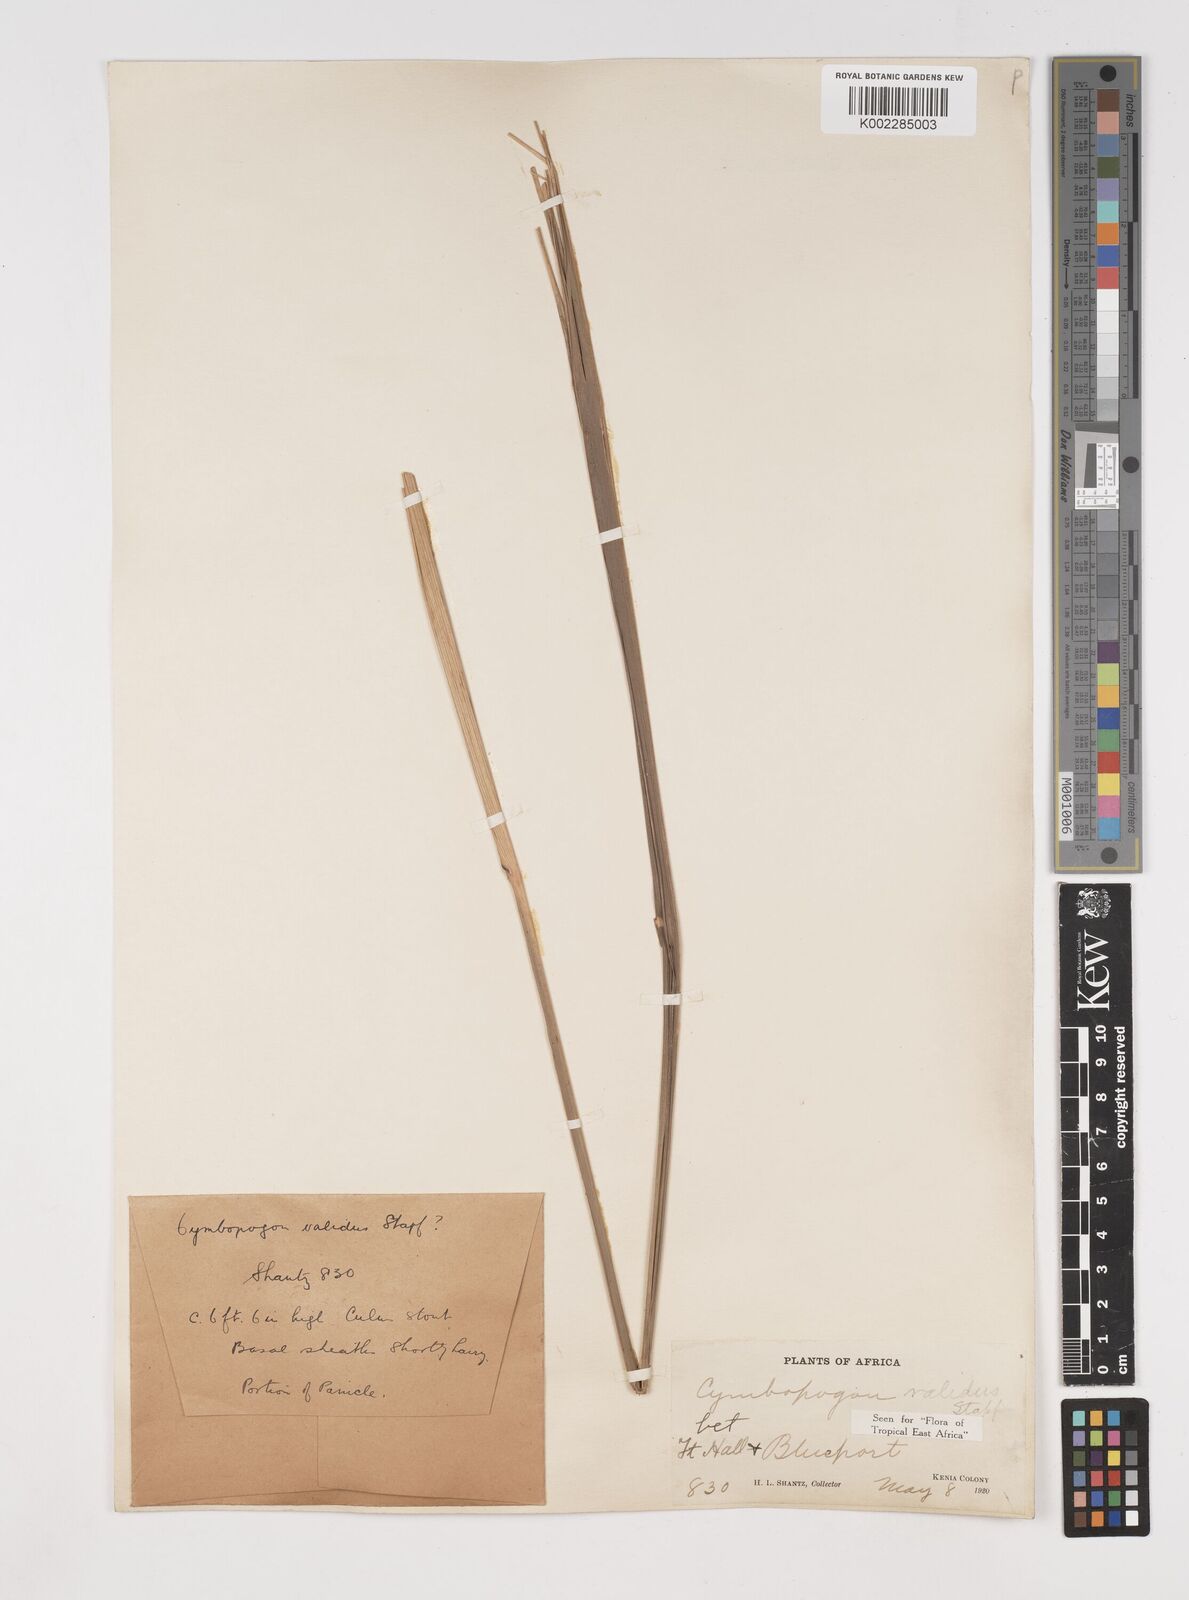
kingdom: Plantae
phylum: Tracheophyta
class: Liliopsida
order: Poales
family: Poaceae
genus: Cymbopogon
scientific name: Cymbopogon nardus
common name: Giant turpentine grass
